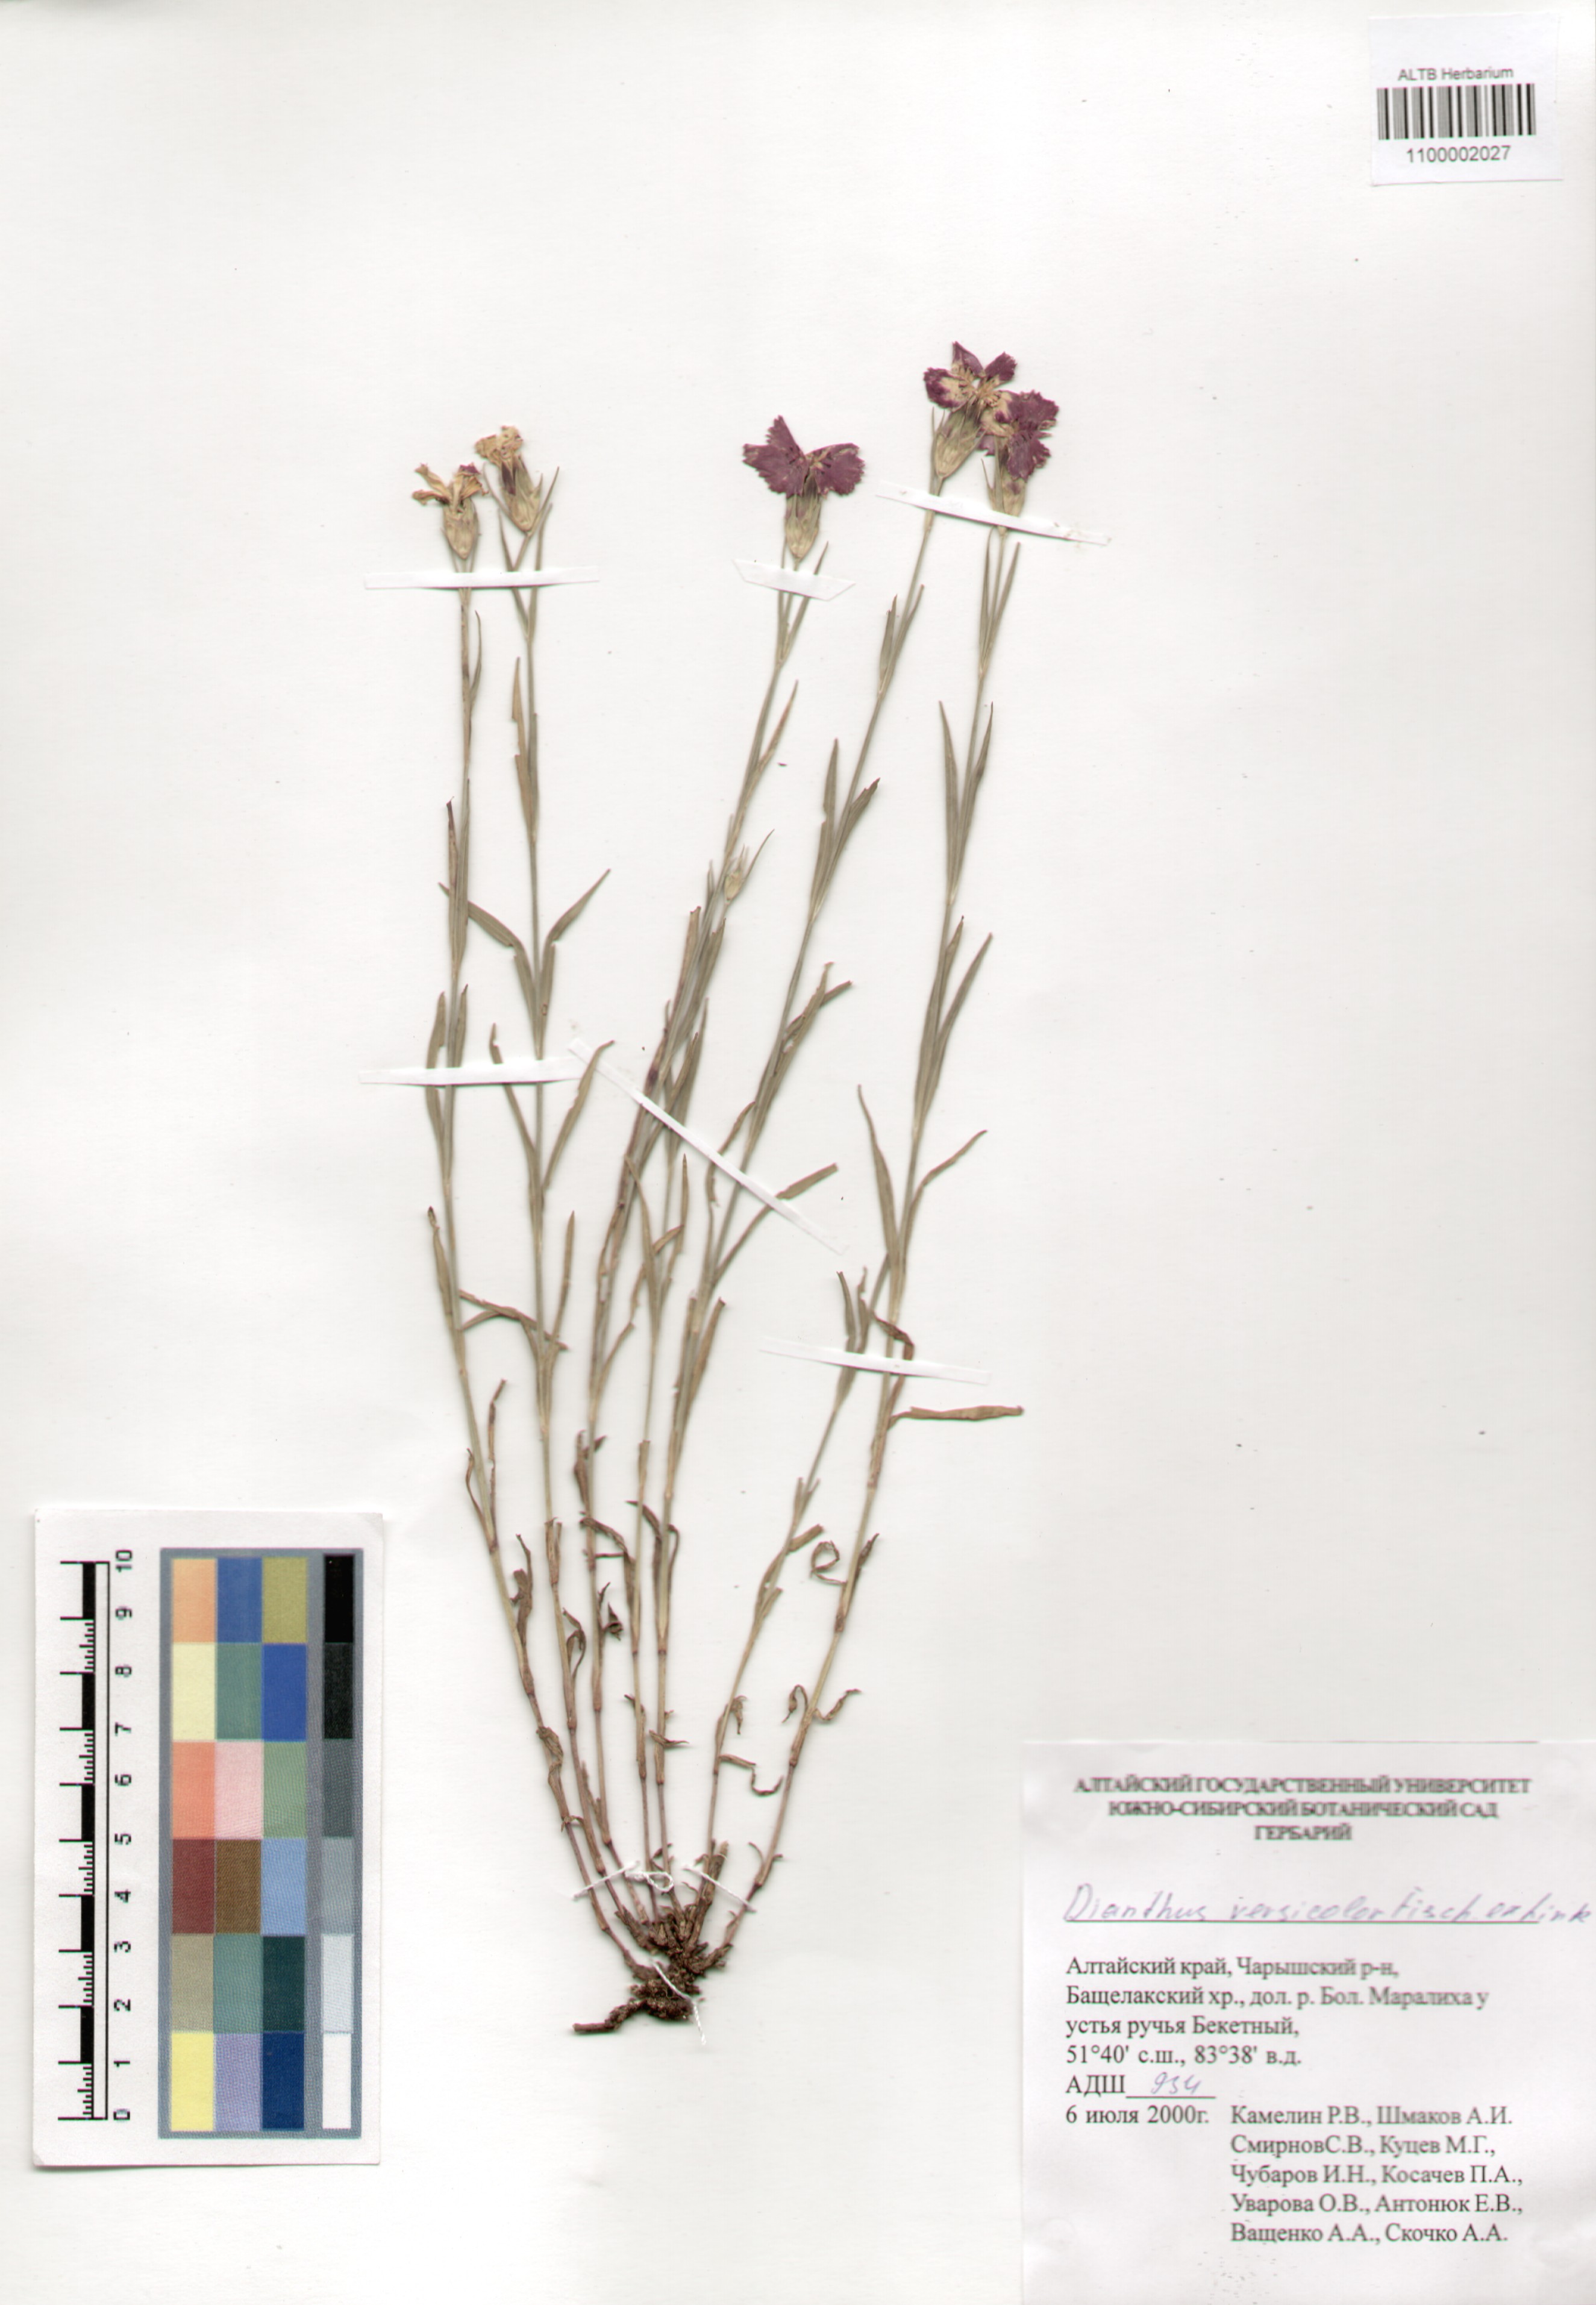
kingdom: Plantae
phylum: Tracheophyta
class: Magnoliopsida
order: Caryophyllales
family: Caryophyllaceae
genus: Dianthus
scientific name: Dianthus chinensis
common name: Rainbow pink
